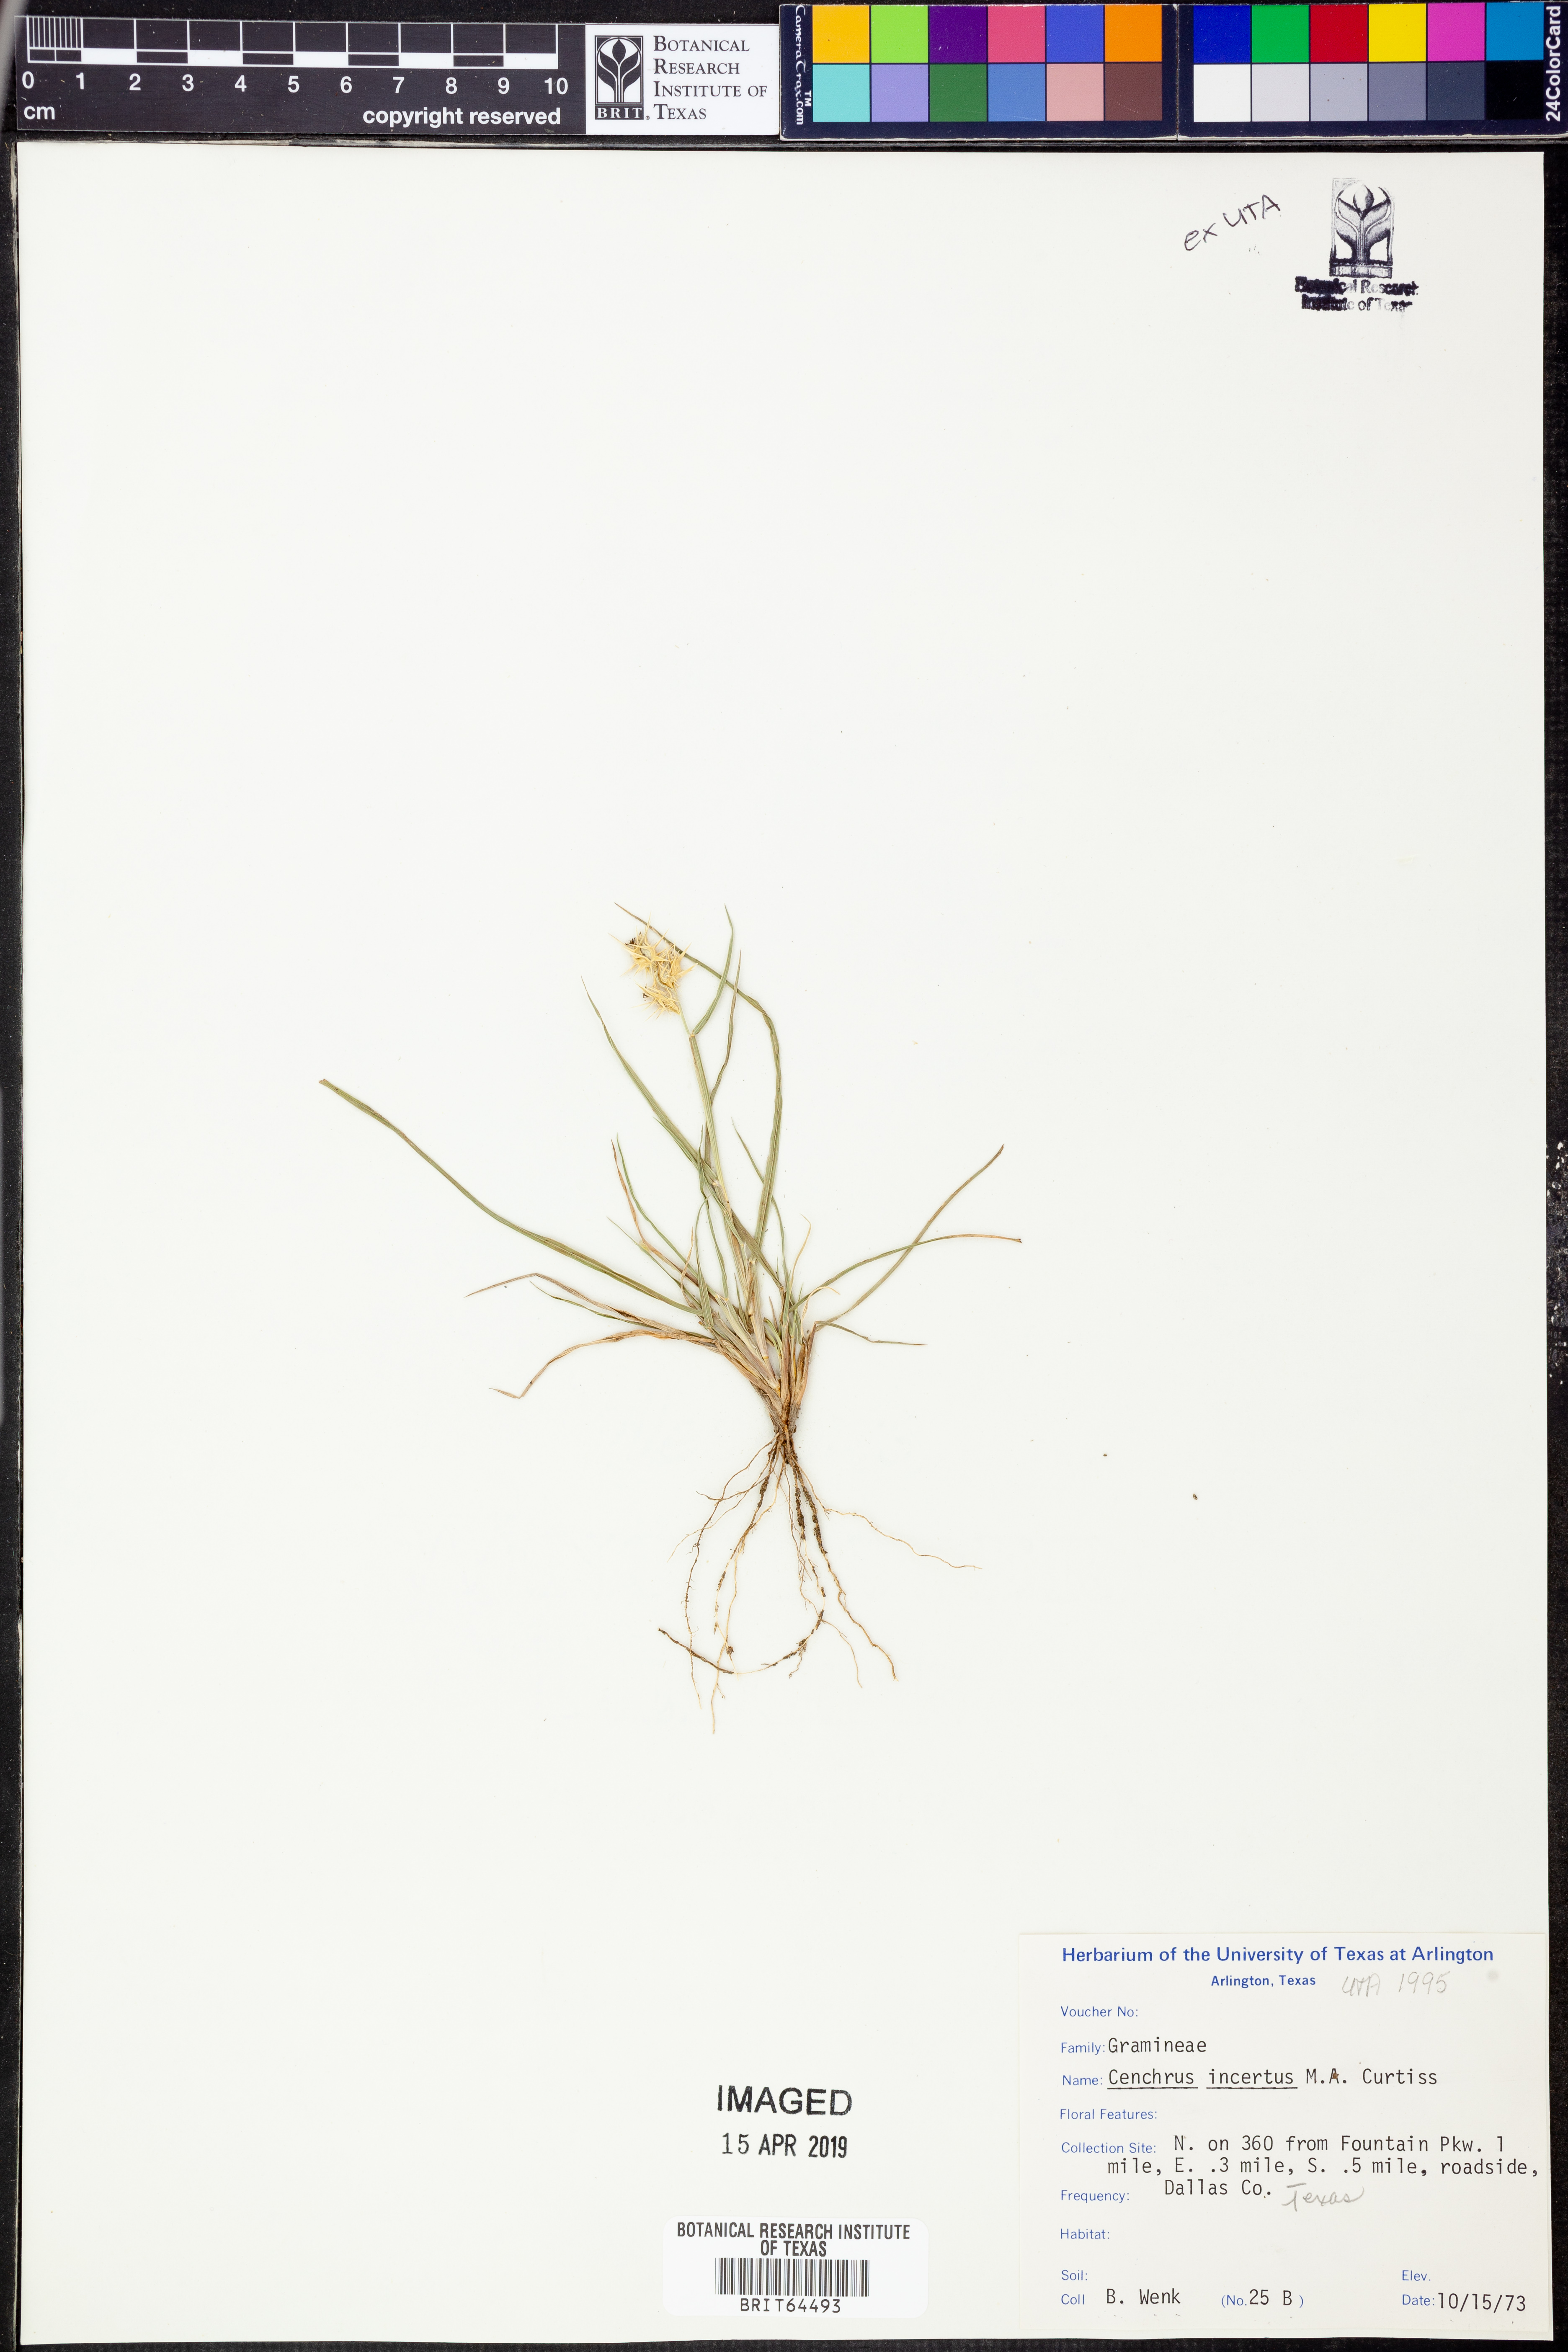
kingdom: Plantae
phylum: Tracheophyta
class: Liliopsida
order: Poales
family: Poaceae
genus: Cenchrus
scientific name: Cenchrus spinifex
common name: Coast sandbur
